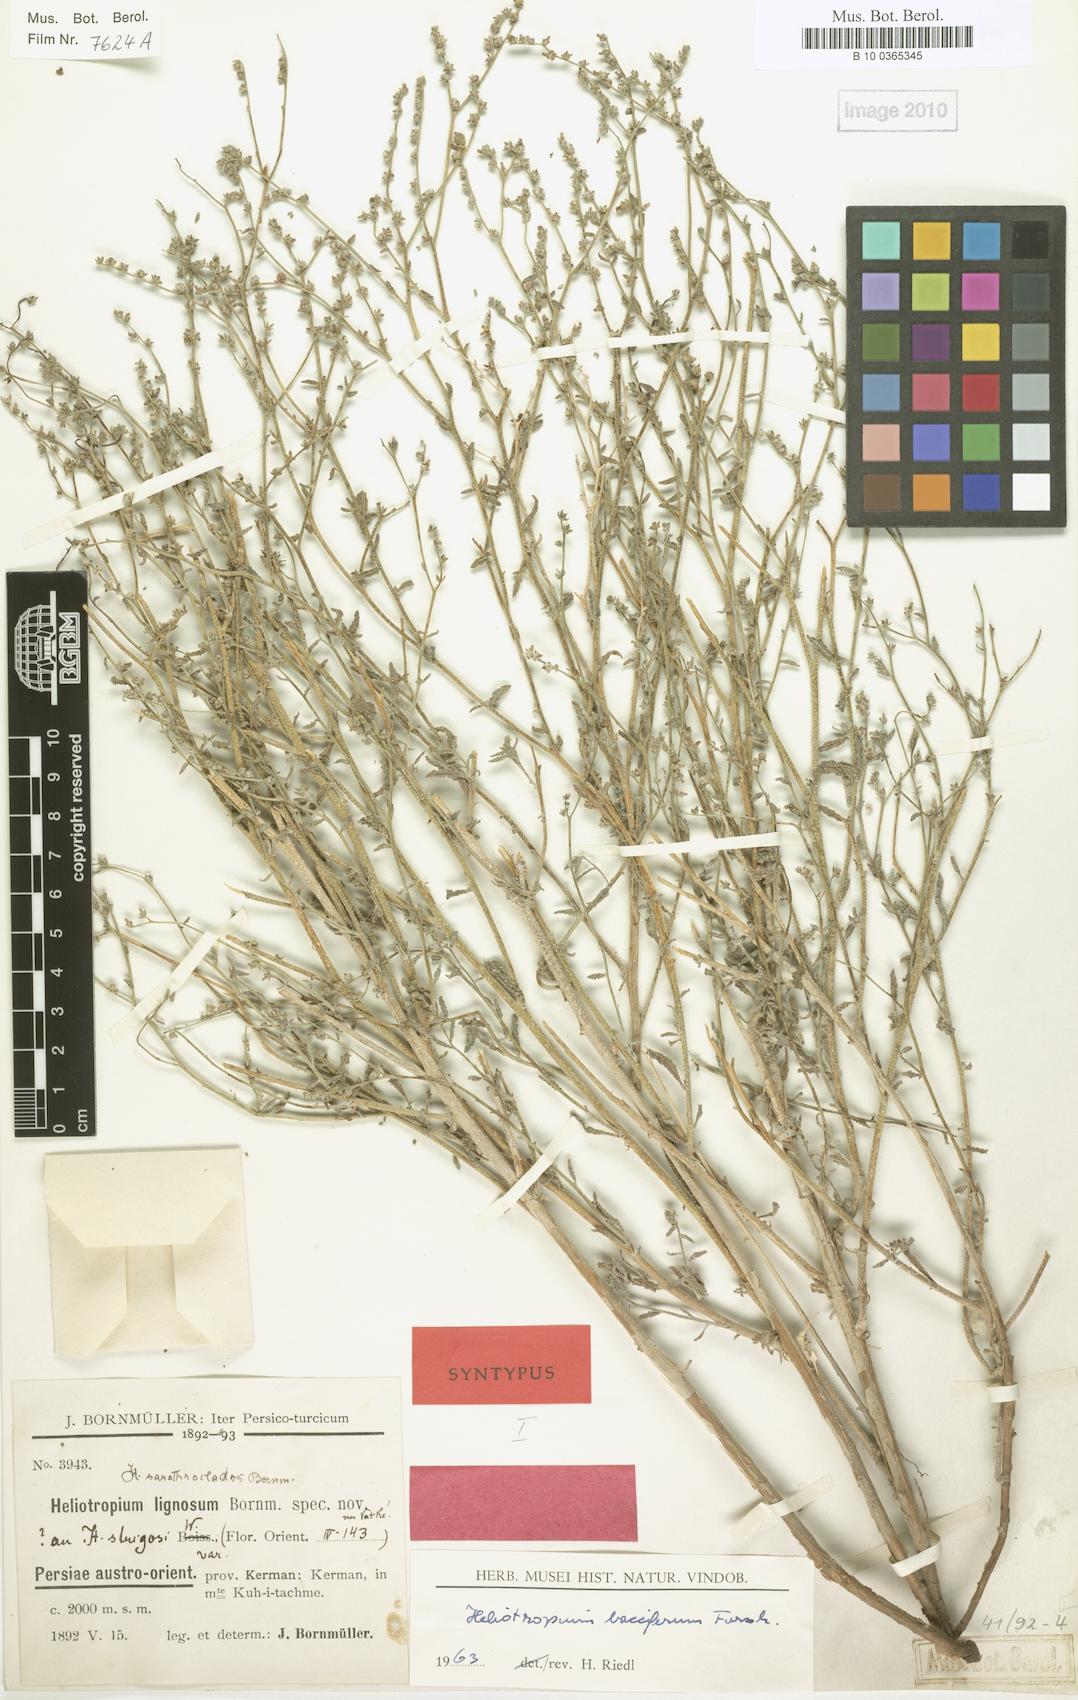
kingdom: Plantae
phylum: Tracheophyta
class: Magnoliopsida
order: Boraginales
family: Heliotropiaceae
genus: Heliotropium
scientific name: Heliotropium bacciferum
